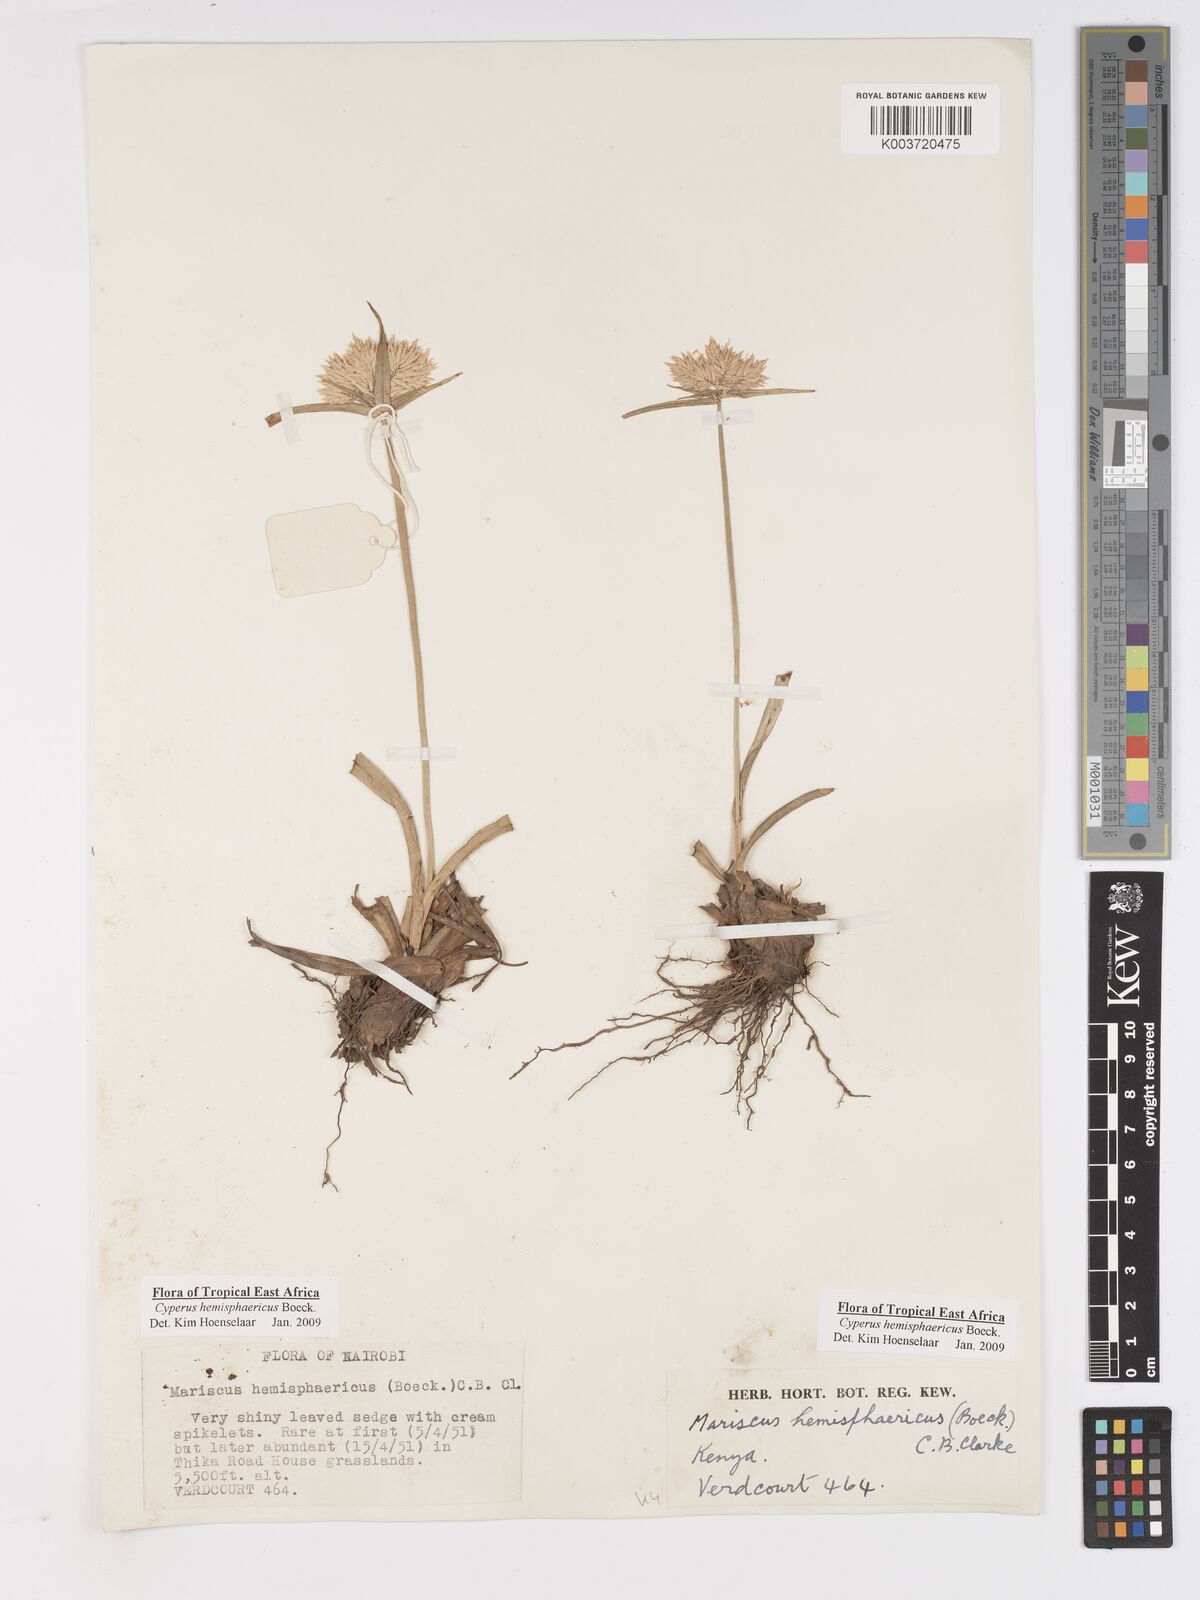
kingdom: Plantae
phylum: Tracheophyta
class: Liliopsida
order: Poales
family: Cyperaceae
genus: Cyperus
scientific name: Cyperus hemisphaericus
